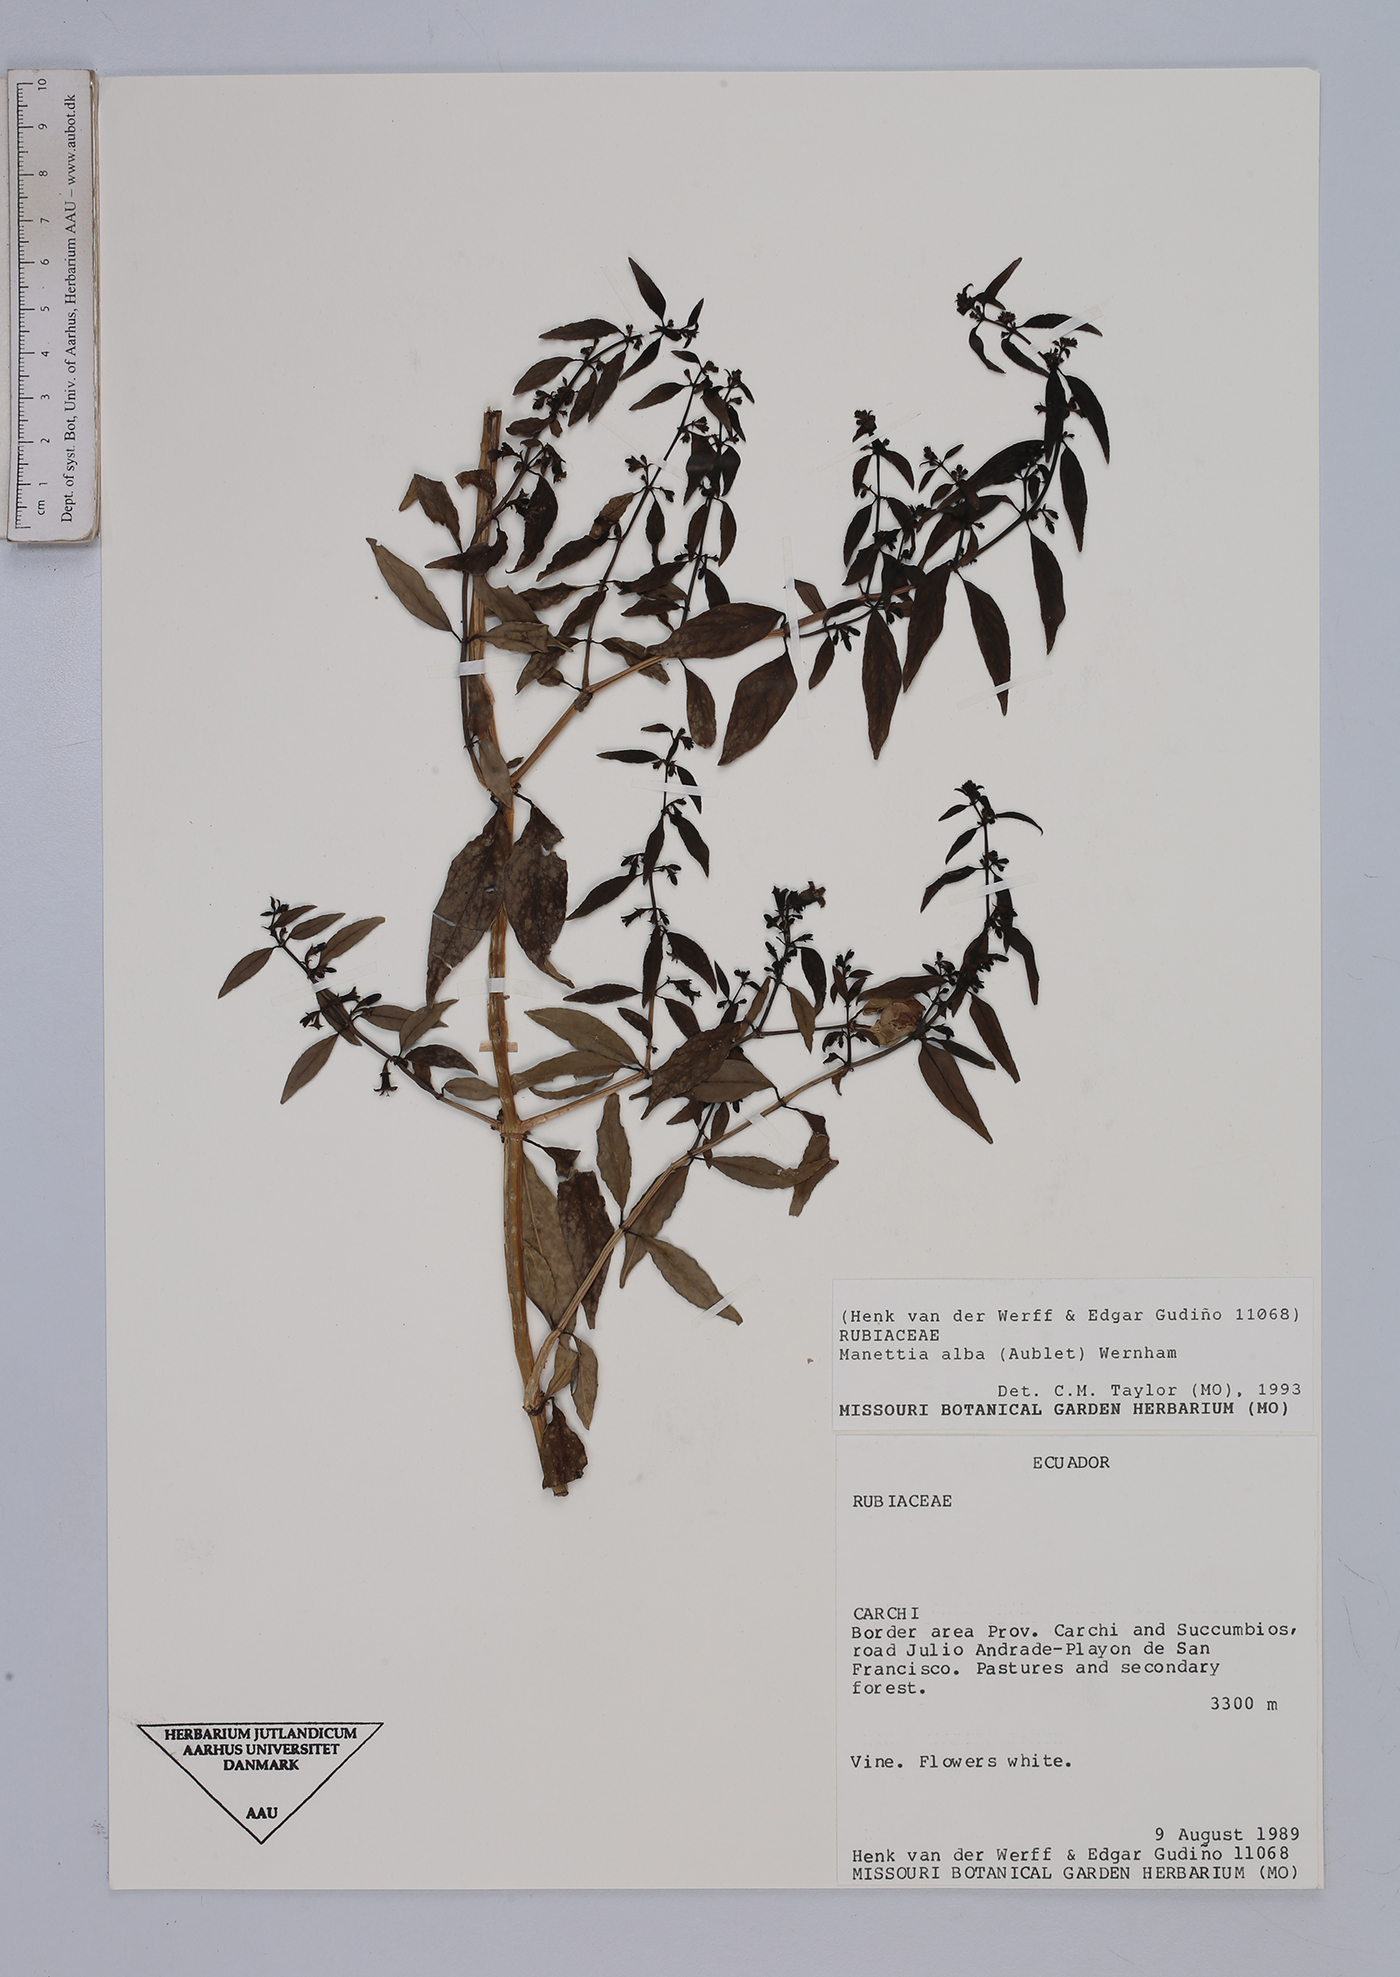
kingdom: Plantae
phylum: Tracheophyta
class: Magnoliopsida
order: Gentianales
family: Rubiaceae
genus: Manettia
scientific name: Manettia alba
